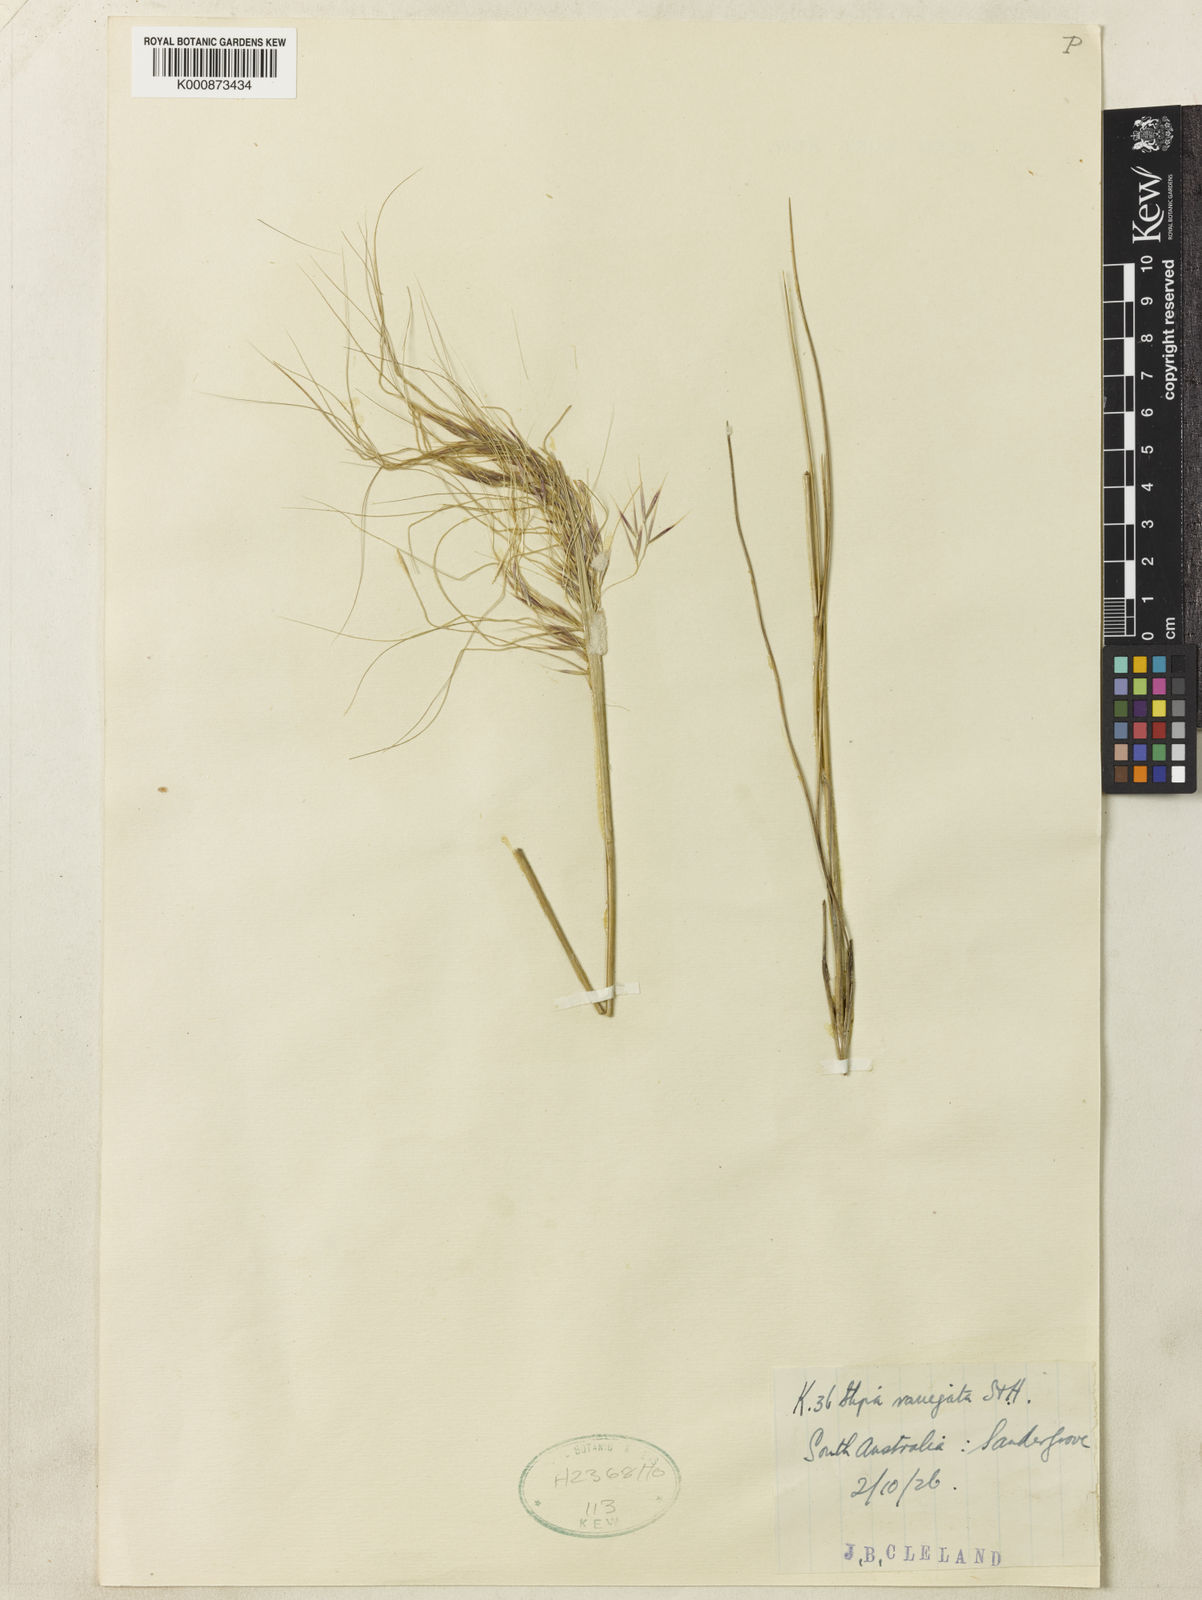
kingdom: Plantae
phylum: Tracheophyta
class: Liliopsida
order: Poales
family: Poaceae
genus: Austrostipa
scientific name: Austrostipa eremophila
